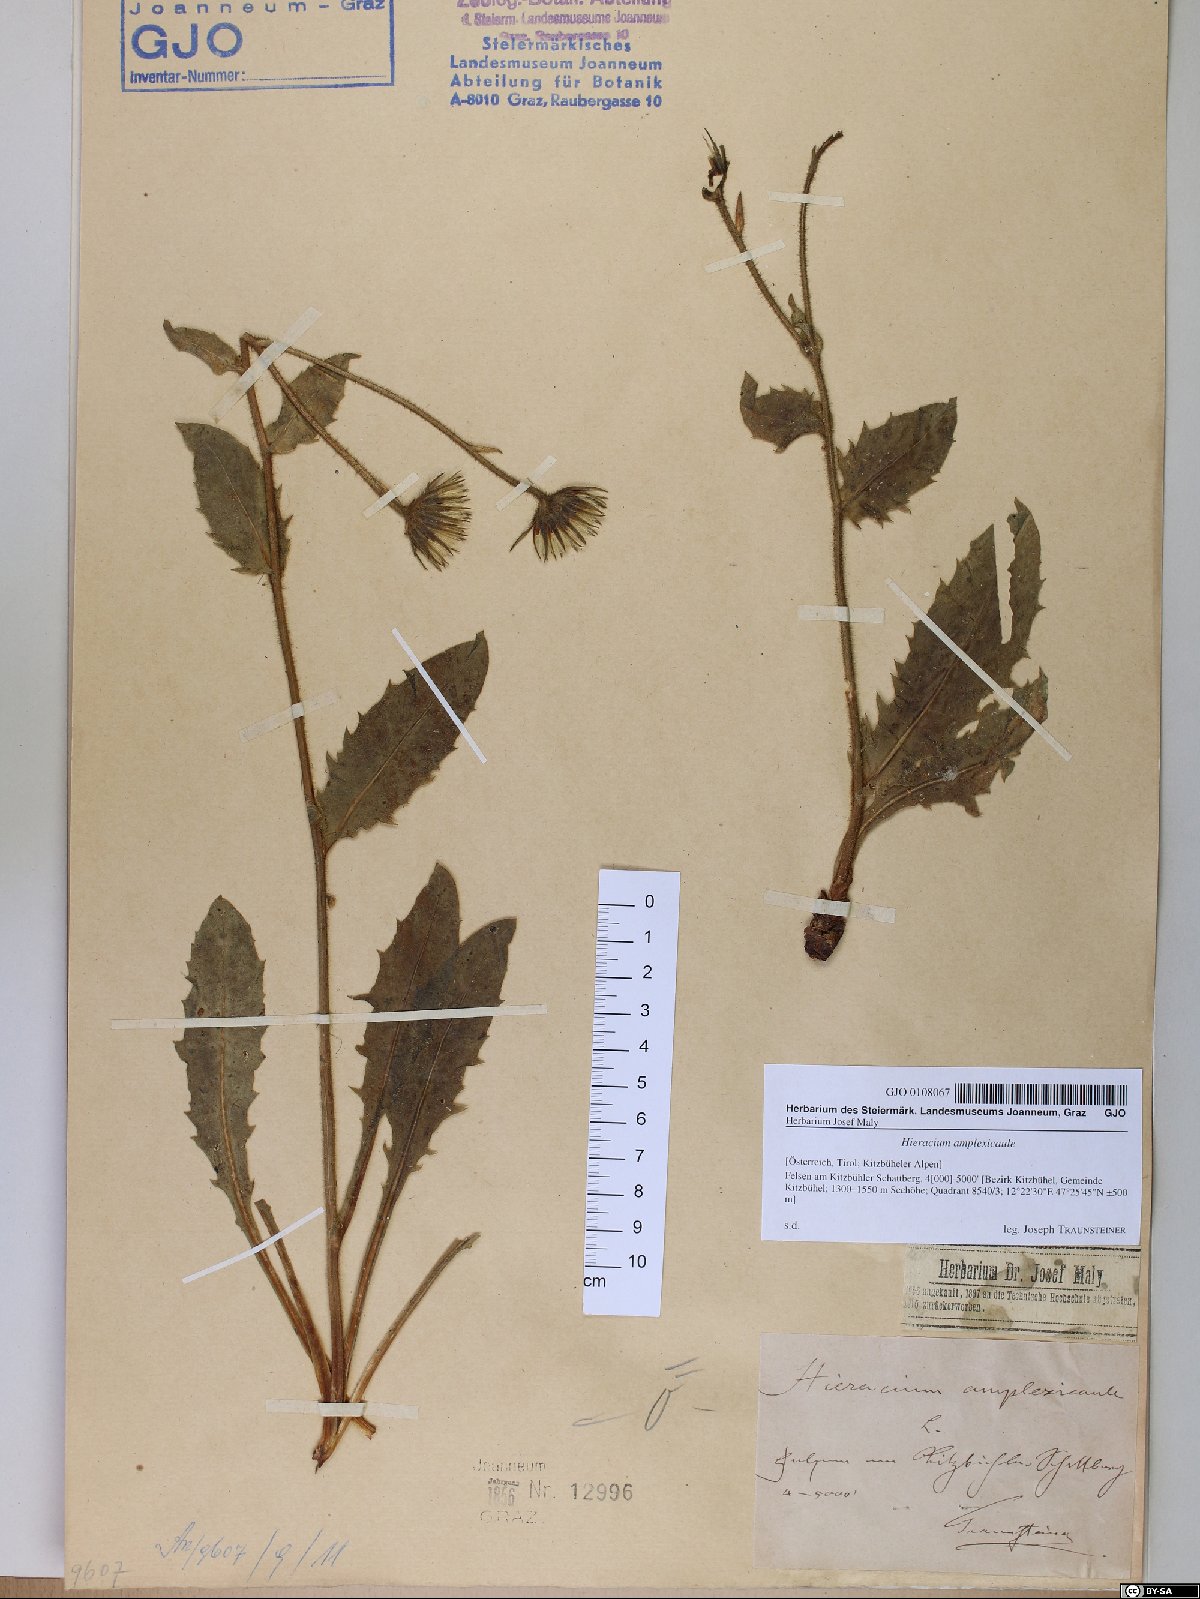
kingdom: Plantae
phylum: Tracheophyta
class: Magnoliopsida
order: Asterales
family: Asteraceae
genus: Hieracium
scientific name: Hieracium amplexicaule
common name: Sticky hawkweed
